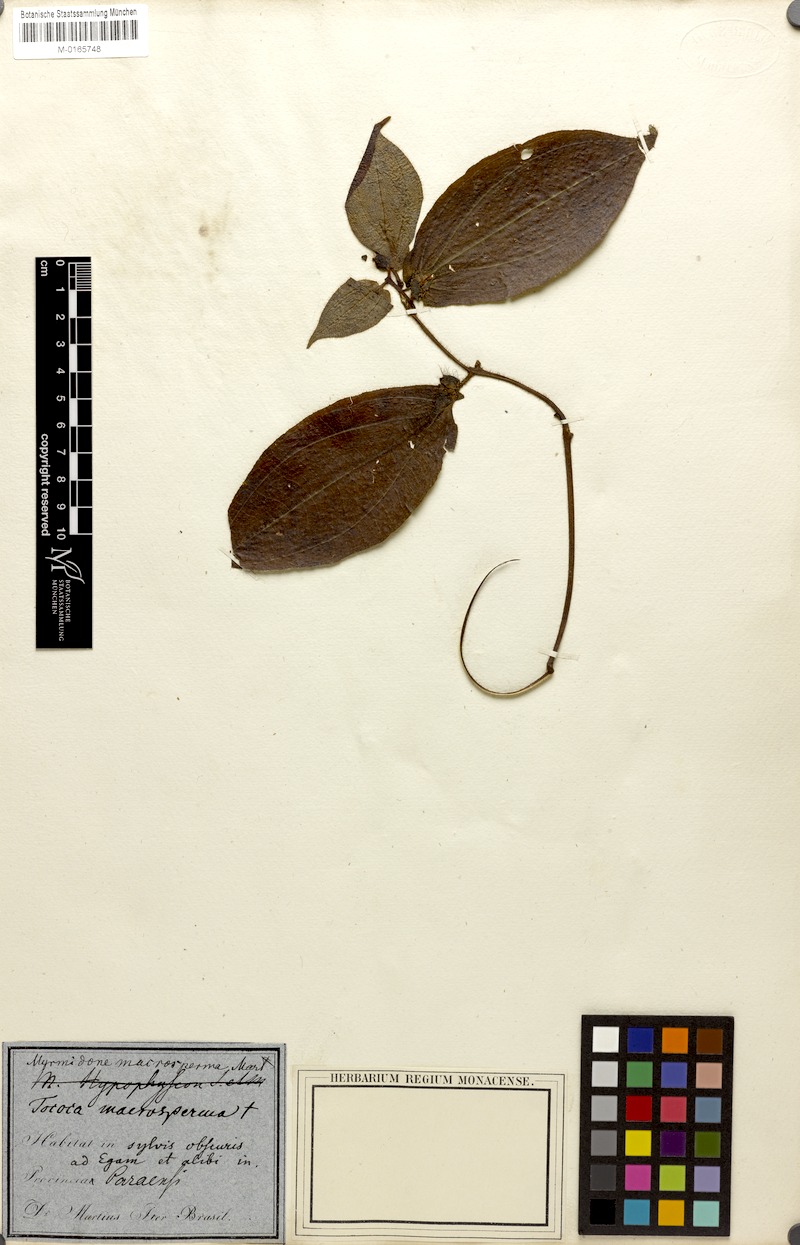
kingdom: Plantae
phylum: Tracheophyta
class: Magnoliopsida
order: Myrtales
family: Melastomataceae
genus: Miconia
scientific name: Miconia macrosperma
